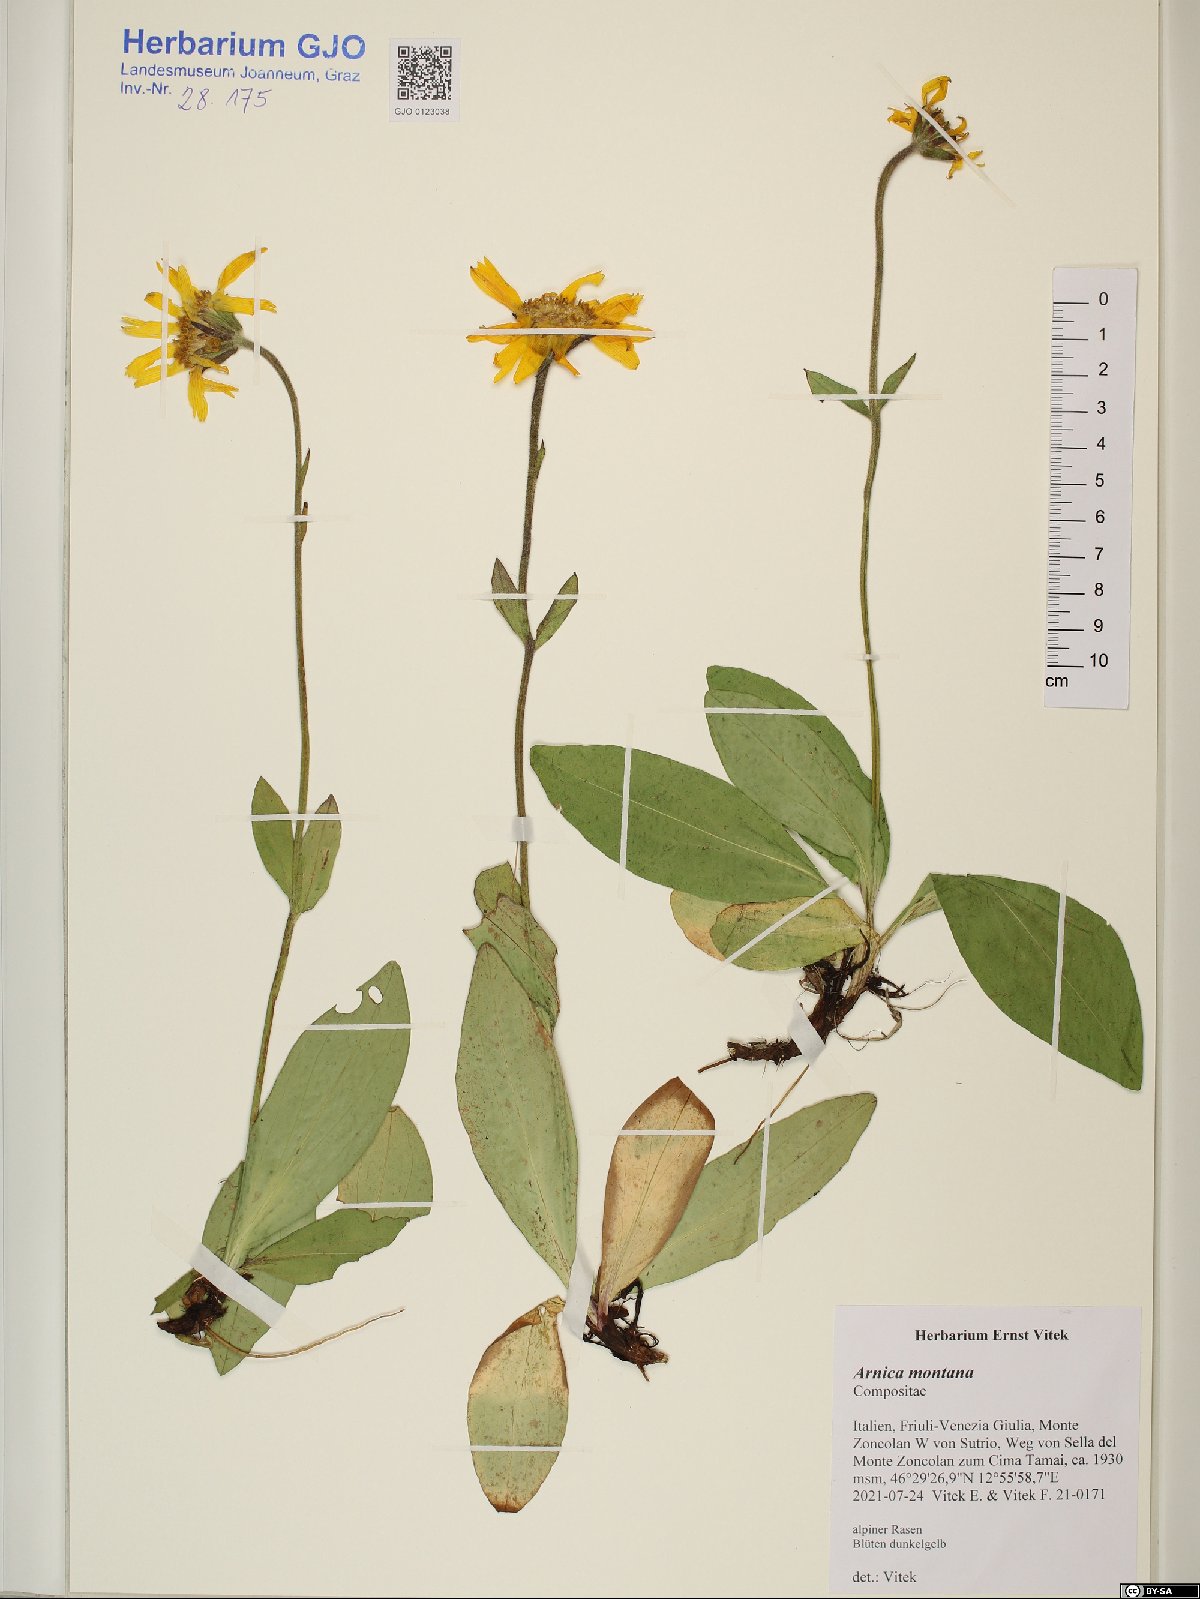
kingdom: Plantae
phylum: Tracheophyta
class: Magnoliopsida
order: Asterales
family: Asteraceae
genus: Arnica
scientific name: Arnica montana
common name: Leopard's bane
